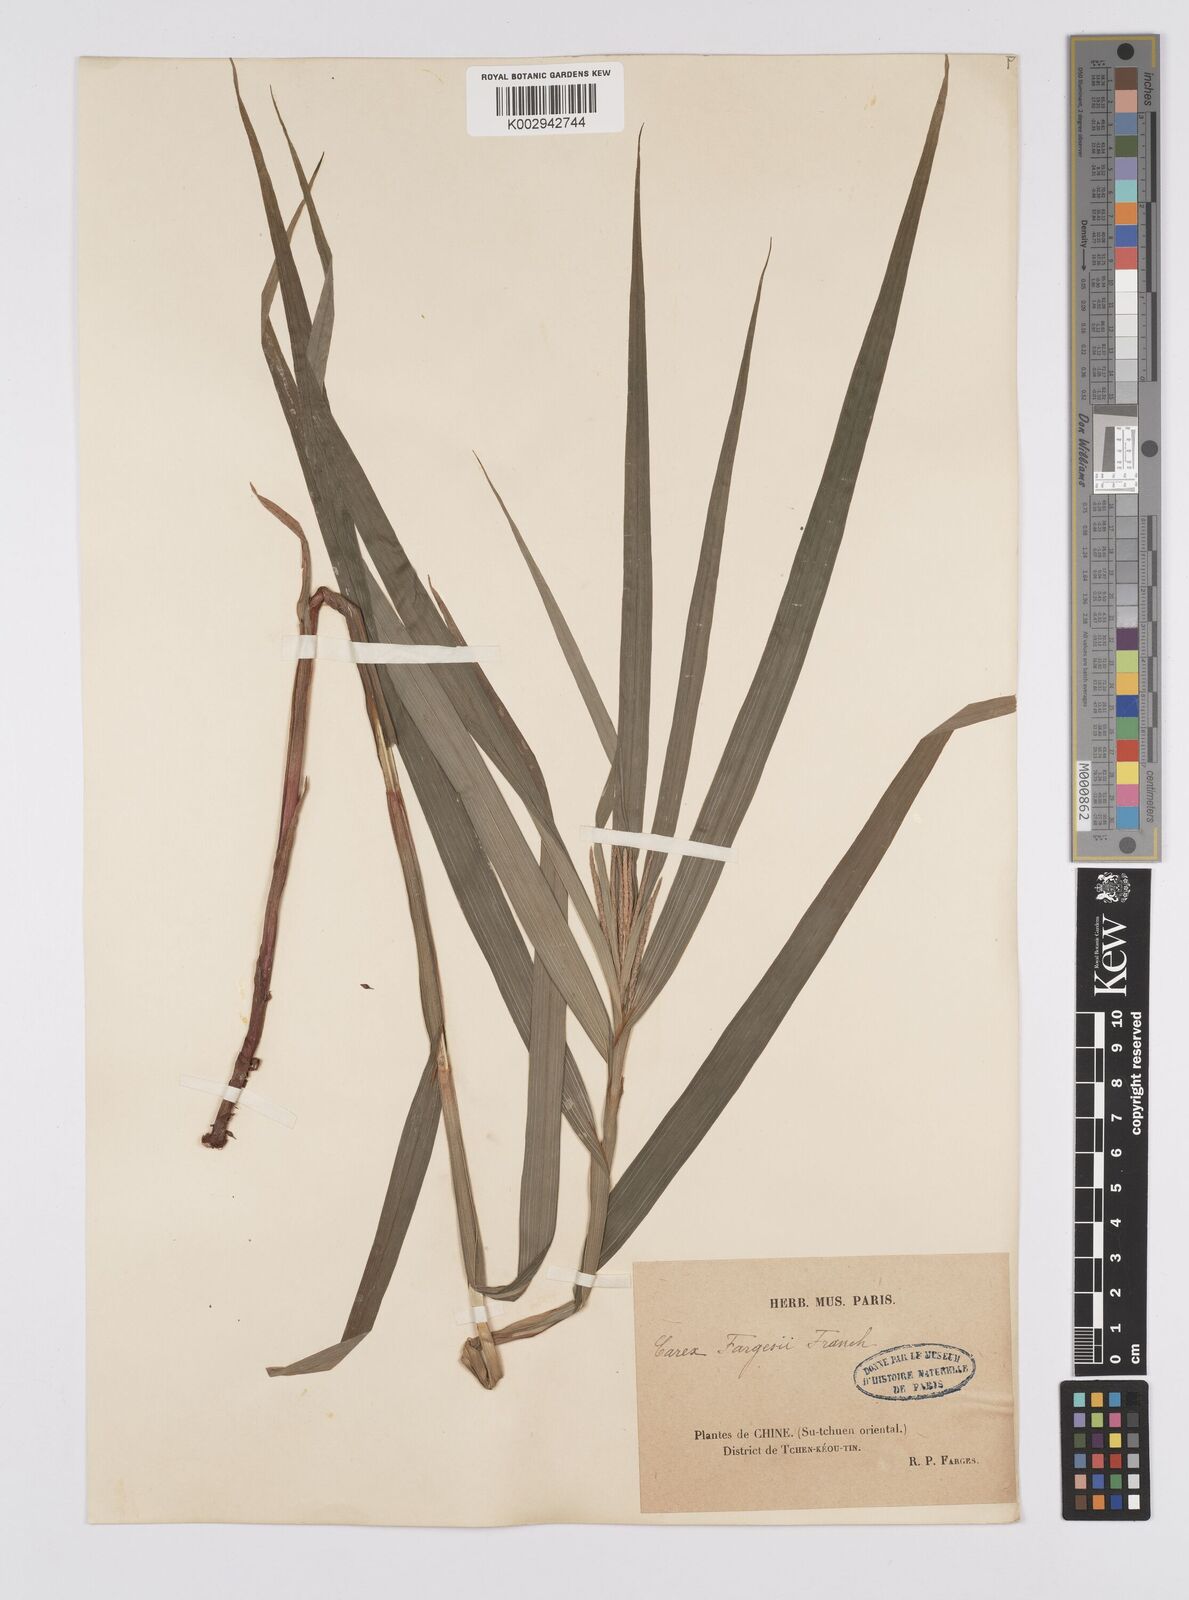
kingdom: Plantae
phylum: Tracheophyta
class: Liliopsida
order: Poales
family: Cyperaceae
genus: Carex
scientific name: Carex ligulata
